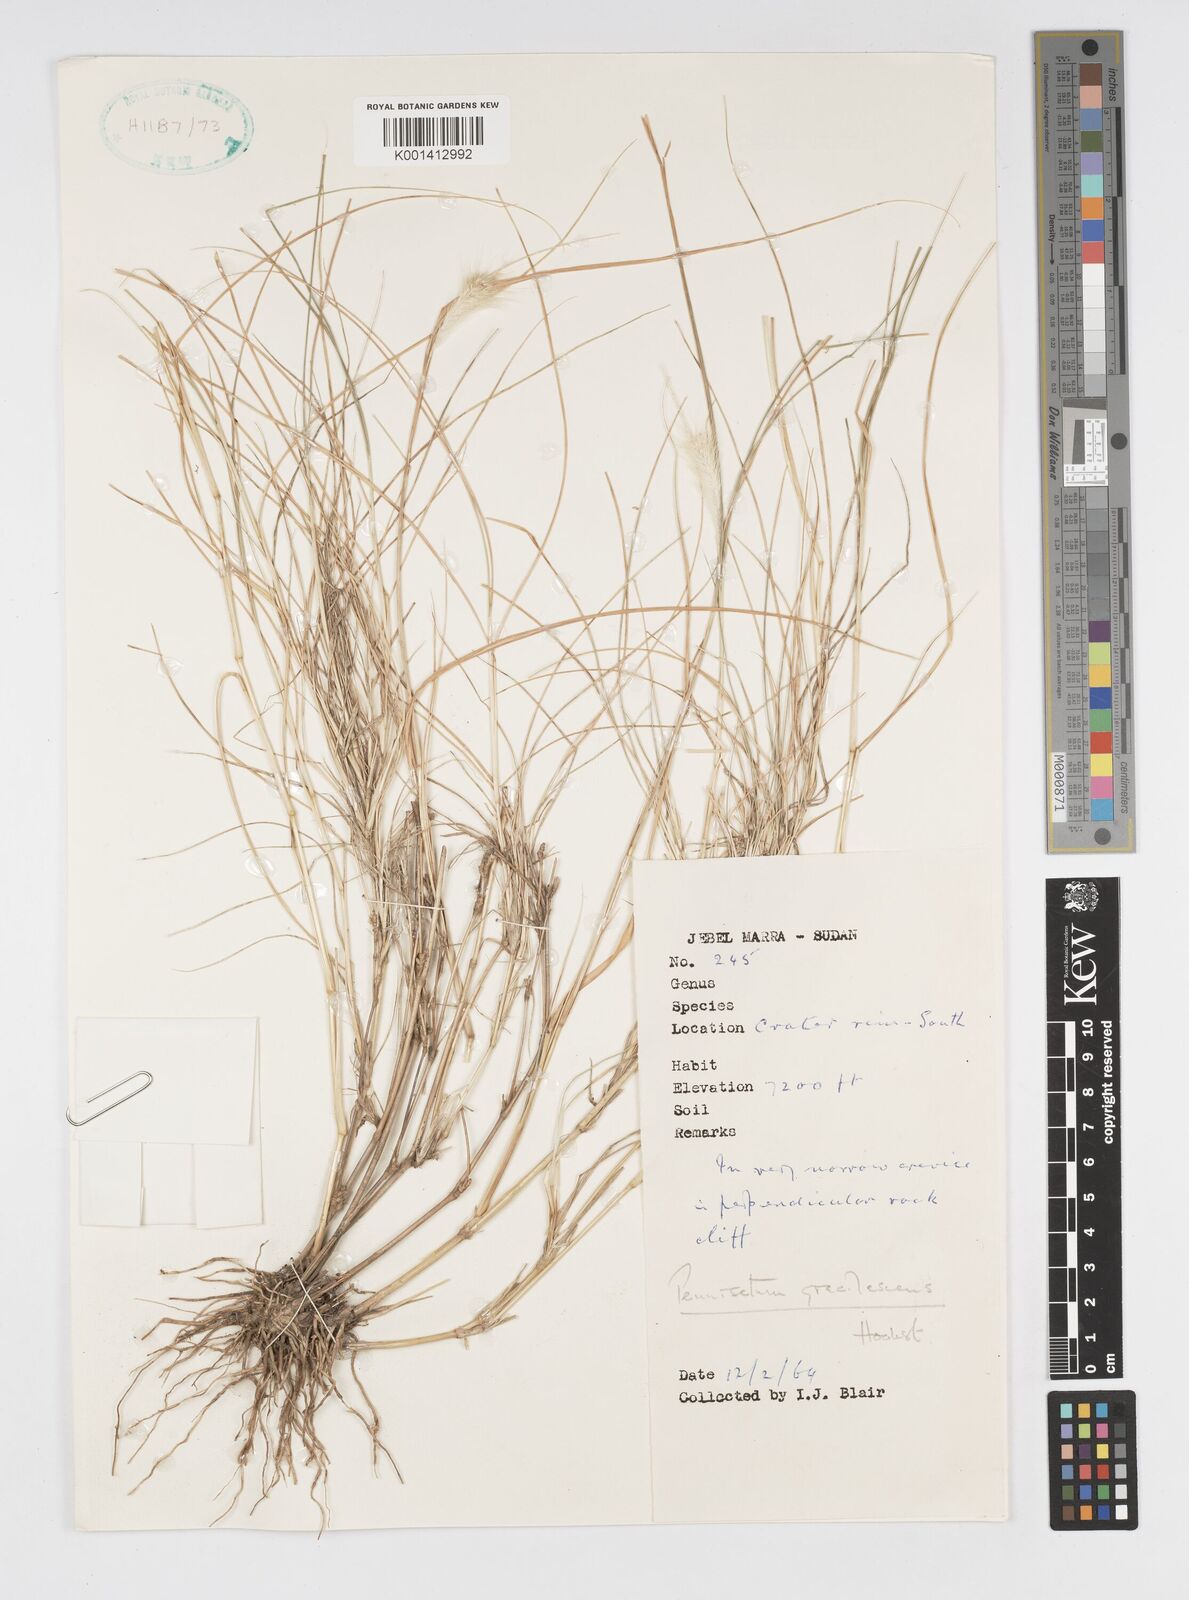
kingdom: Plantae
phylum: Tracheophyta
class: Liliopsida
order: Poales
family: Poaceae
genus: Cenchrus
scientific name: Cenchrus gracilescens
